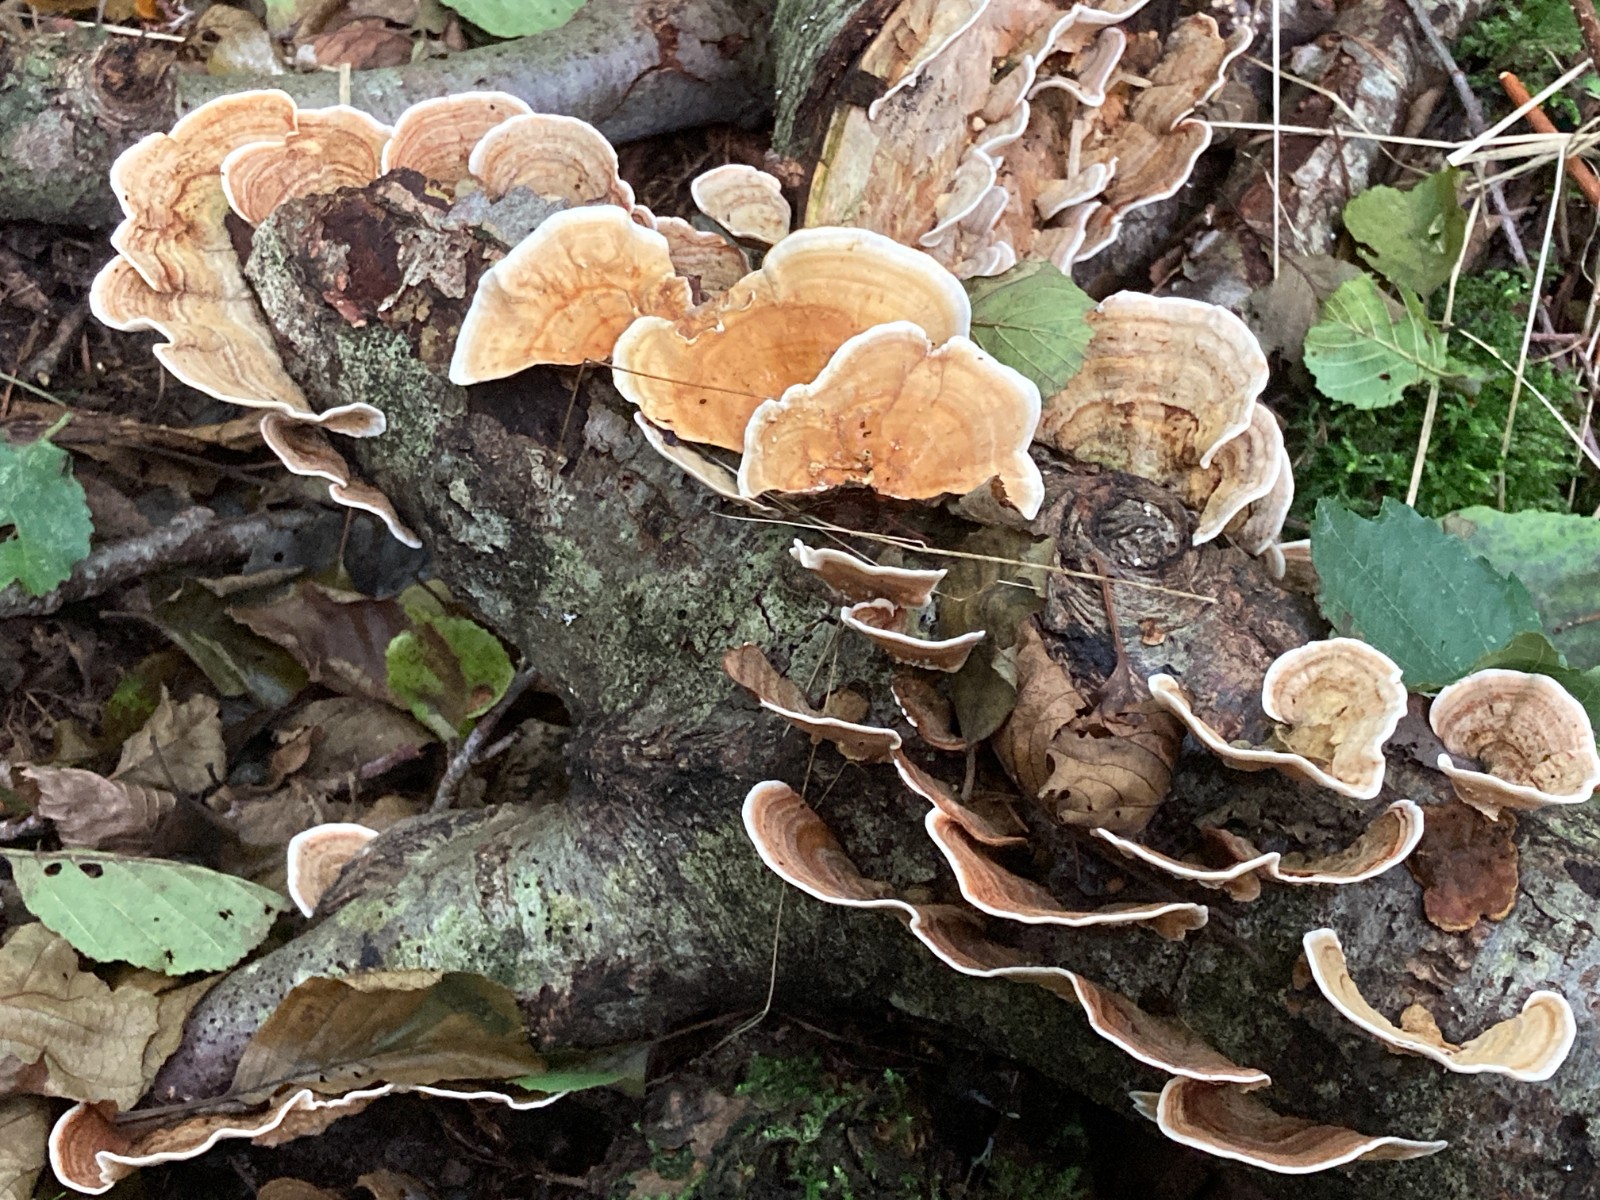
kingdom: Fungi
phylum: Basidiomycota
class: Agaricomycetes
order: Russulales
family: Stereaceae
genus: Stereum
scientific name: Stereum subtomentosum
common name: smuk lædersvamp
